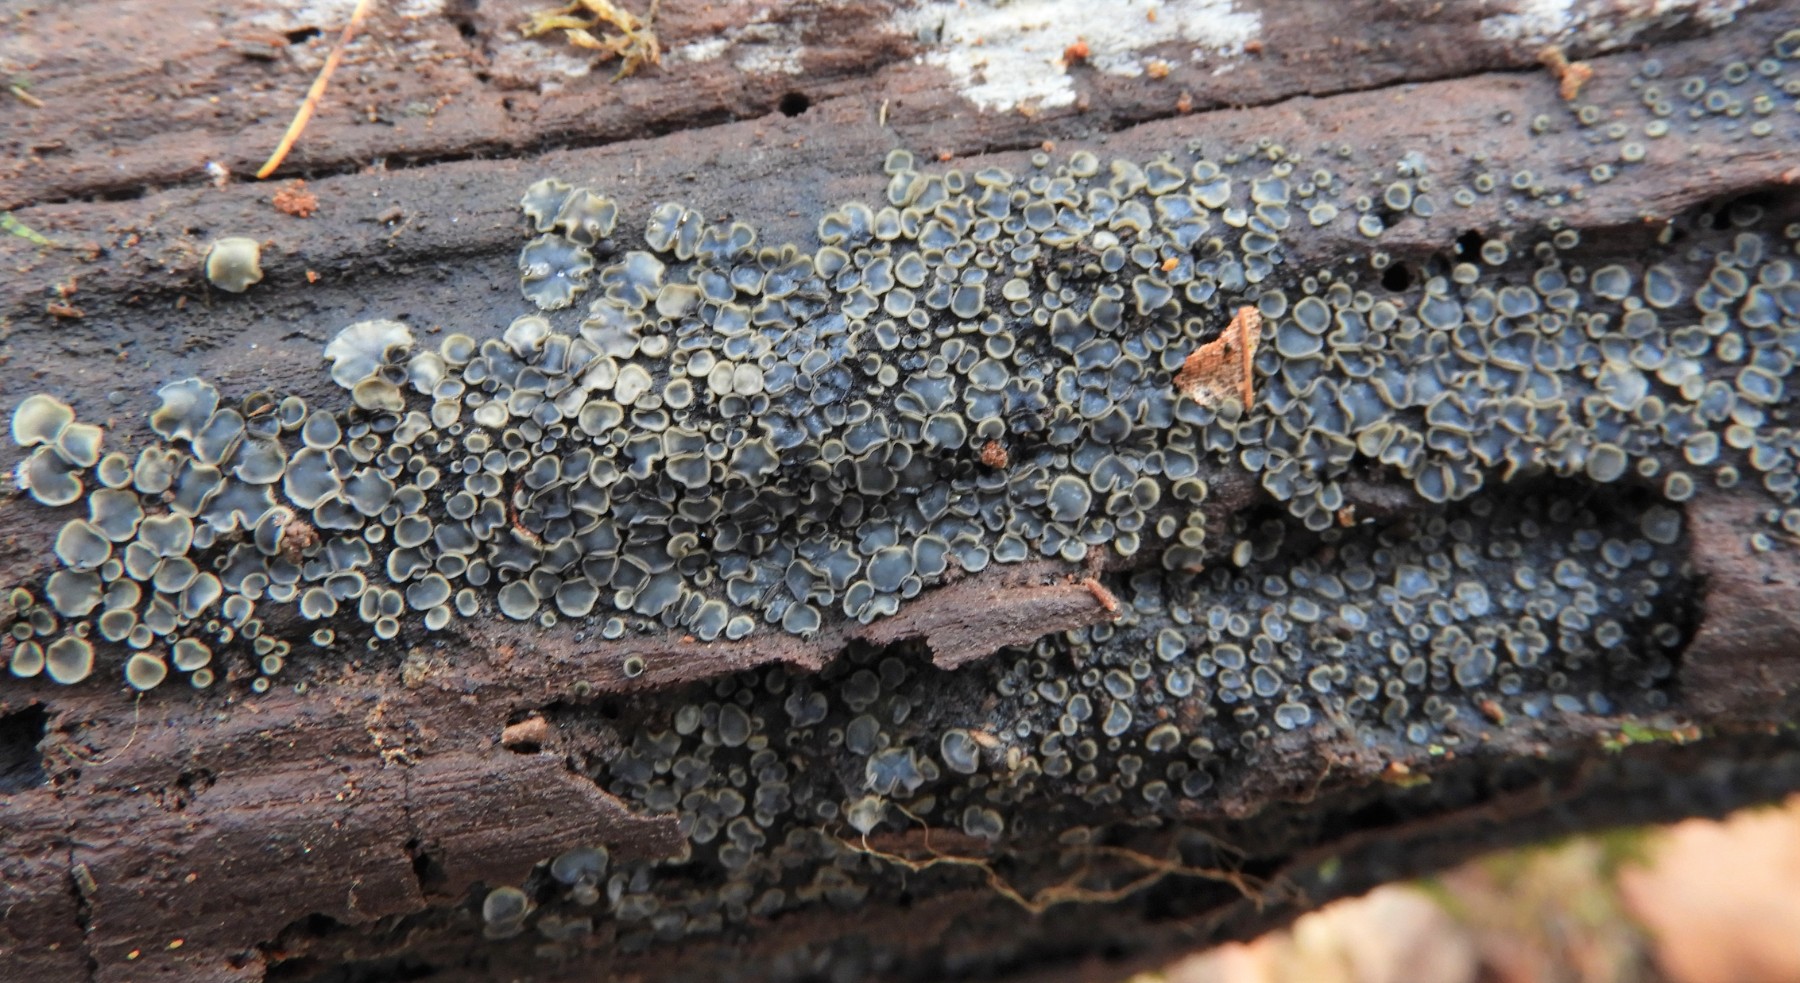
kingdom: Fungi
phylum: Ascomycota
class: Leotiomycetes
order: Helotiales
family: Mollisiaceae
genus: Mollisia
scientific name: Mollisia
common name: gråskive
